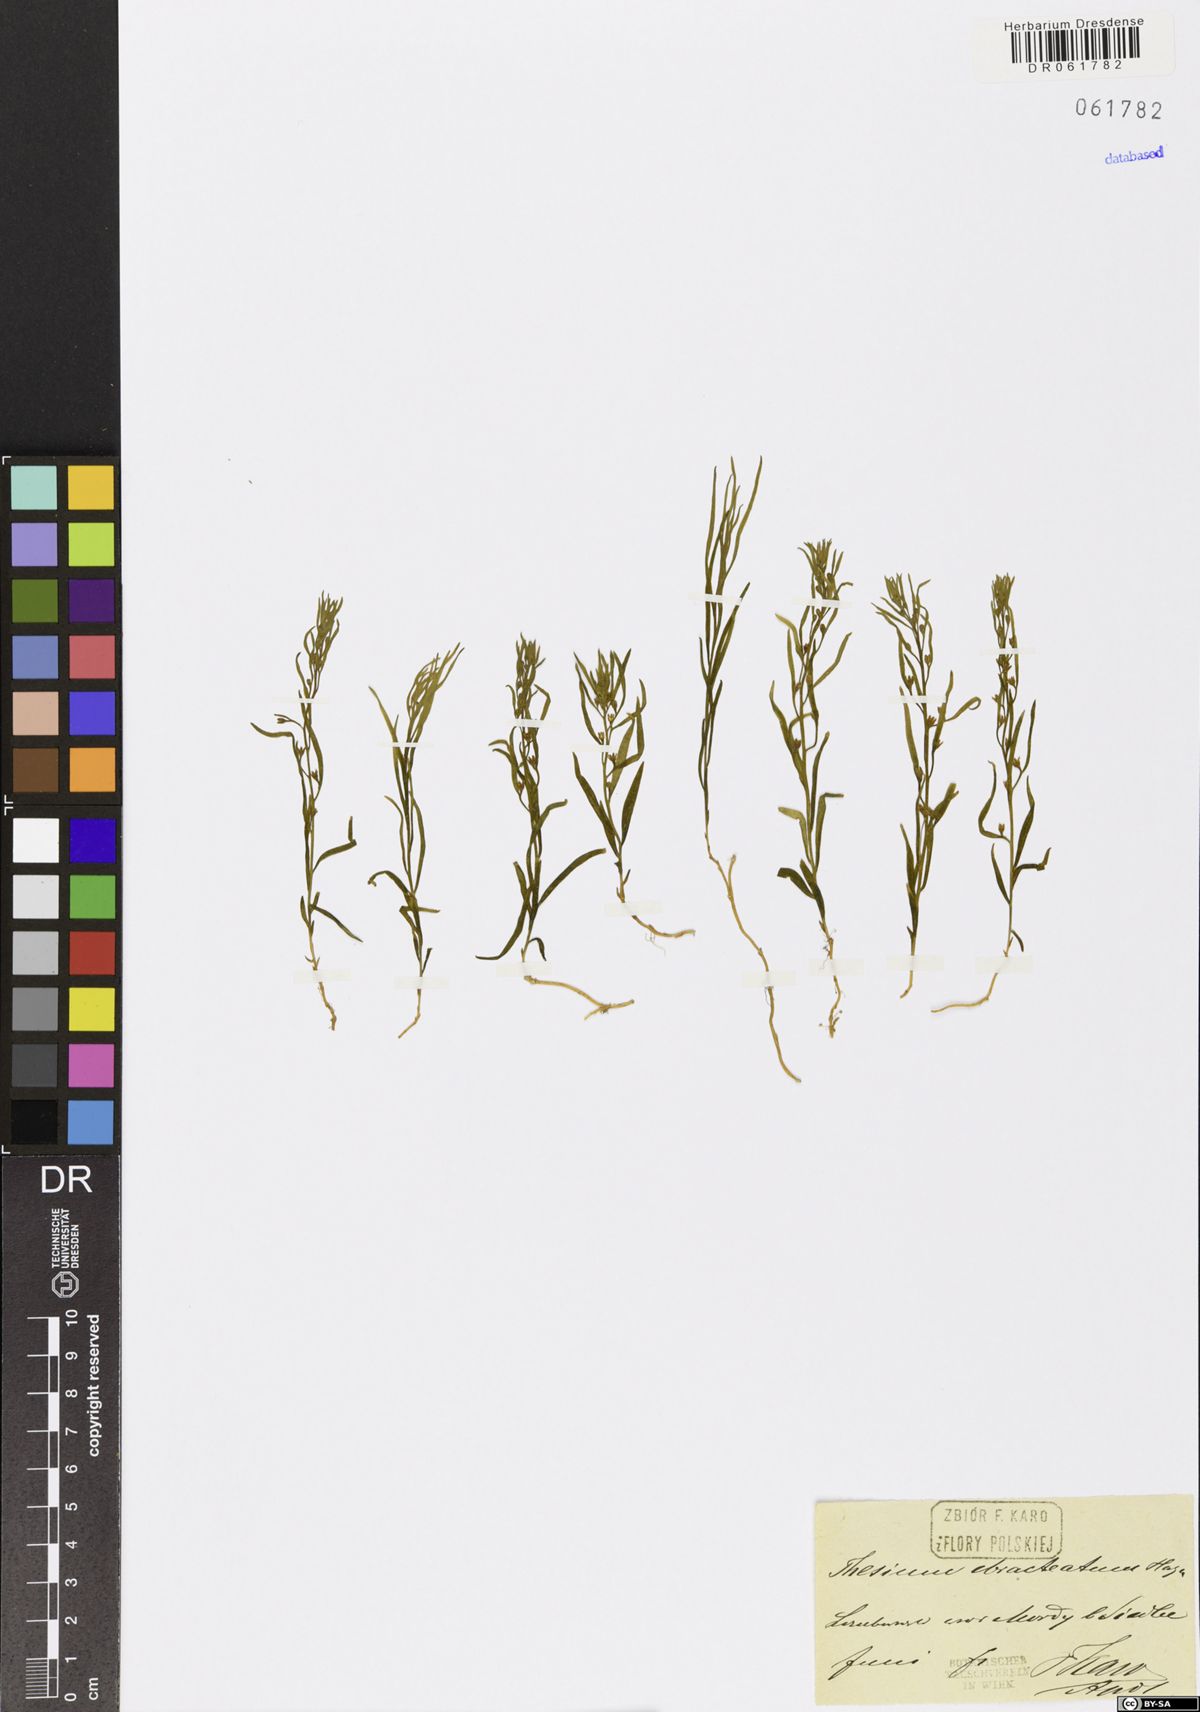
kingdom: Plantae
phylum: Tracheophyta
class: Magnoliopsida
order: Santalales
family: Thesiaceae
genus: Thesium
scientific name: Thesium ebracteatum
